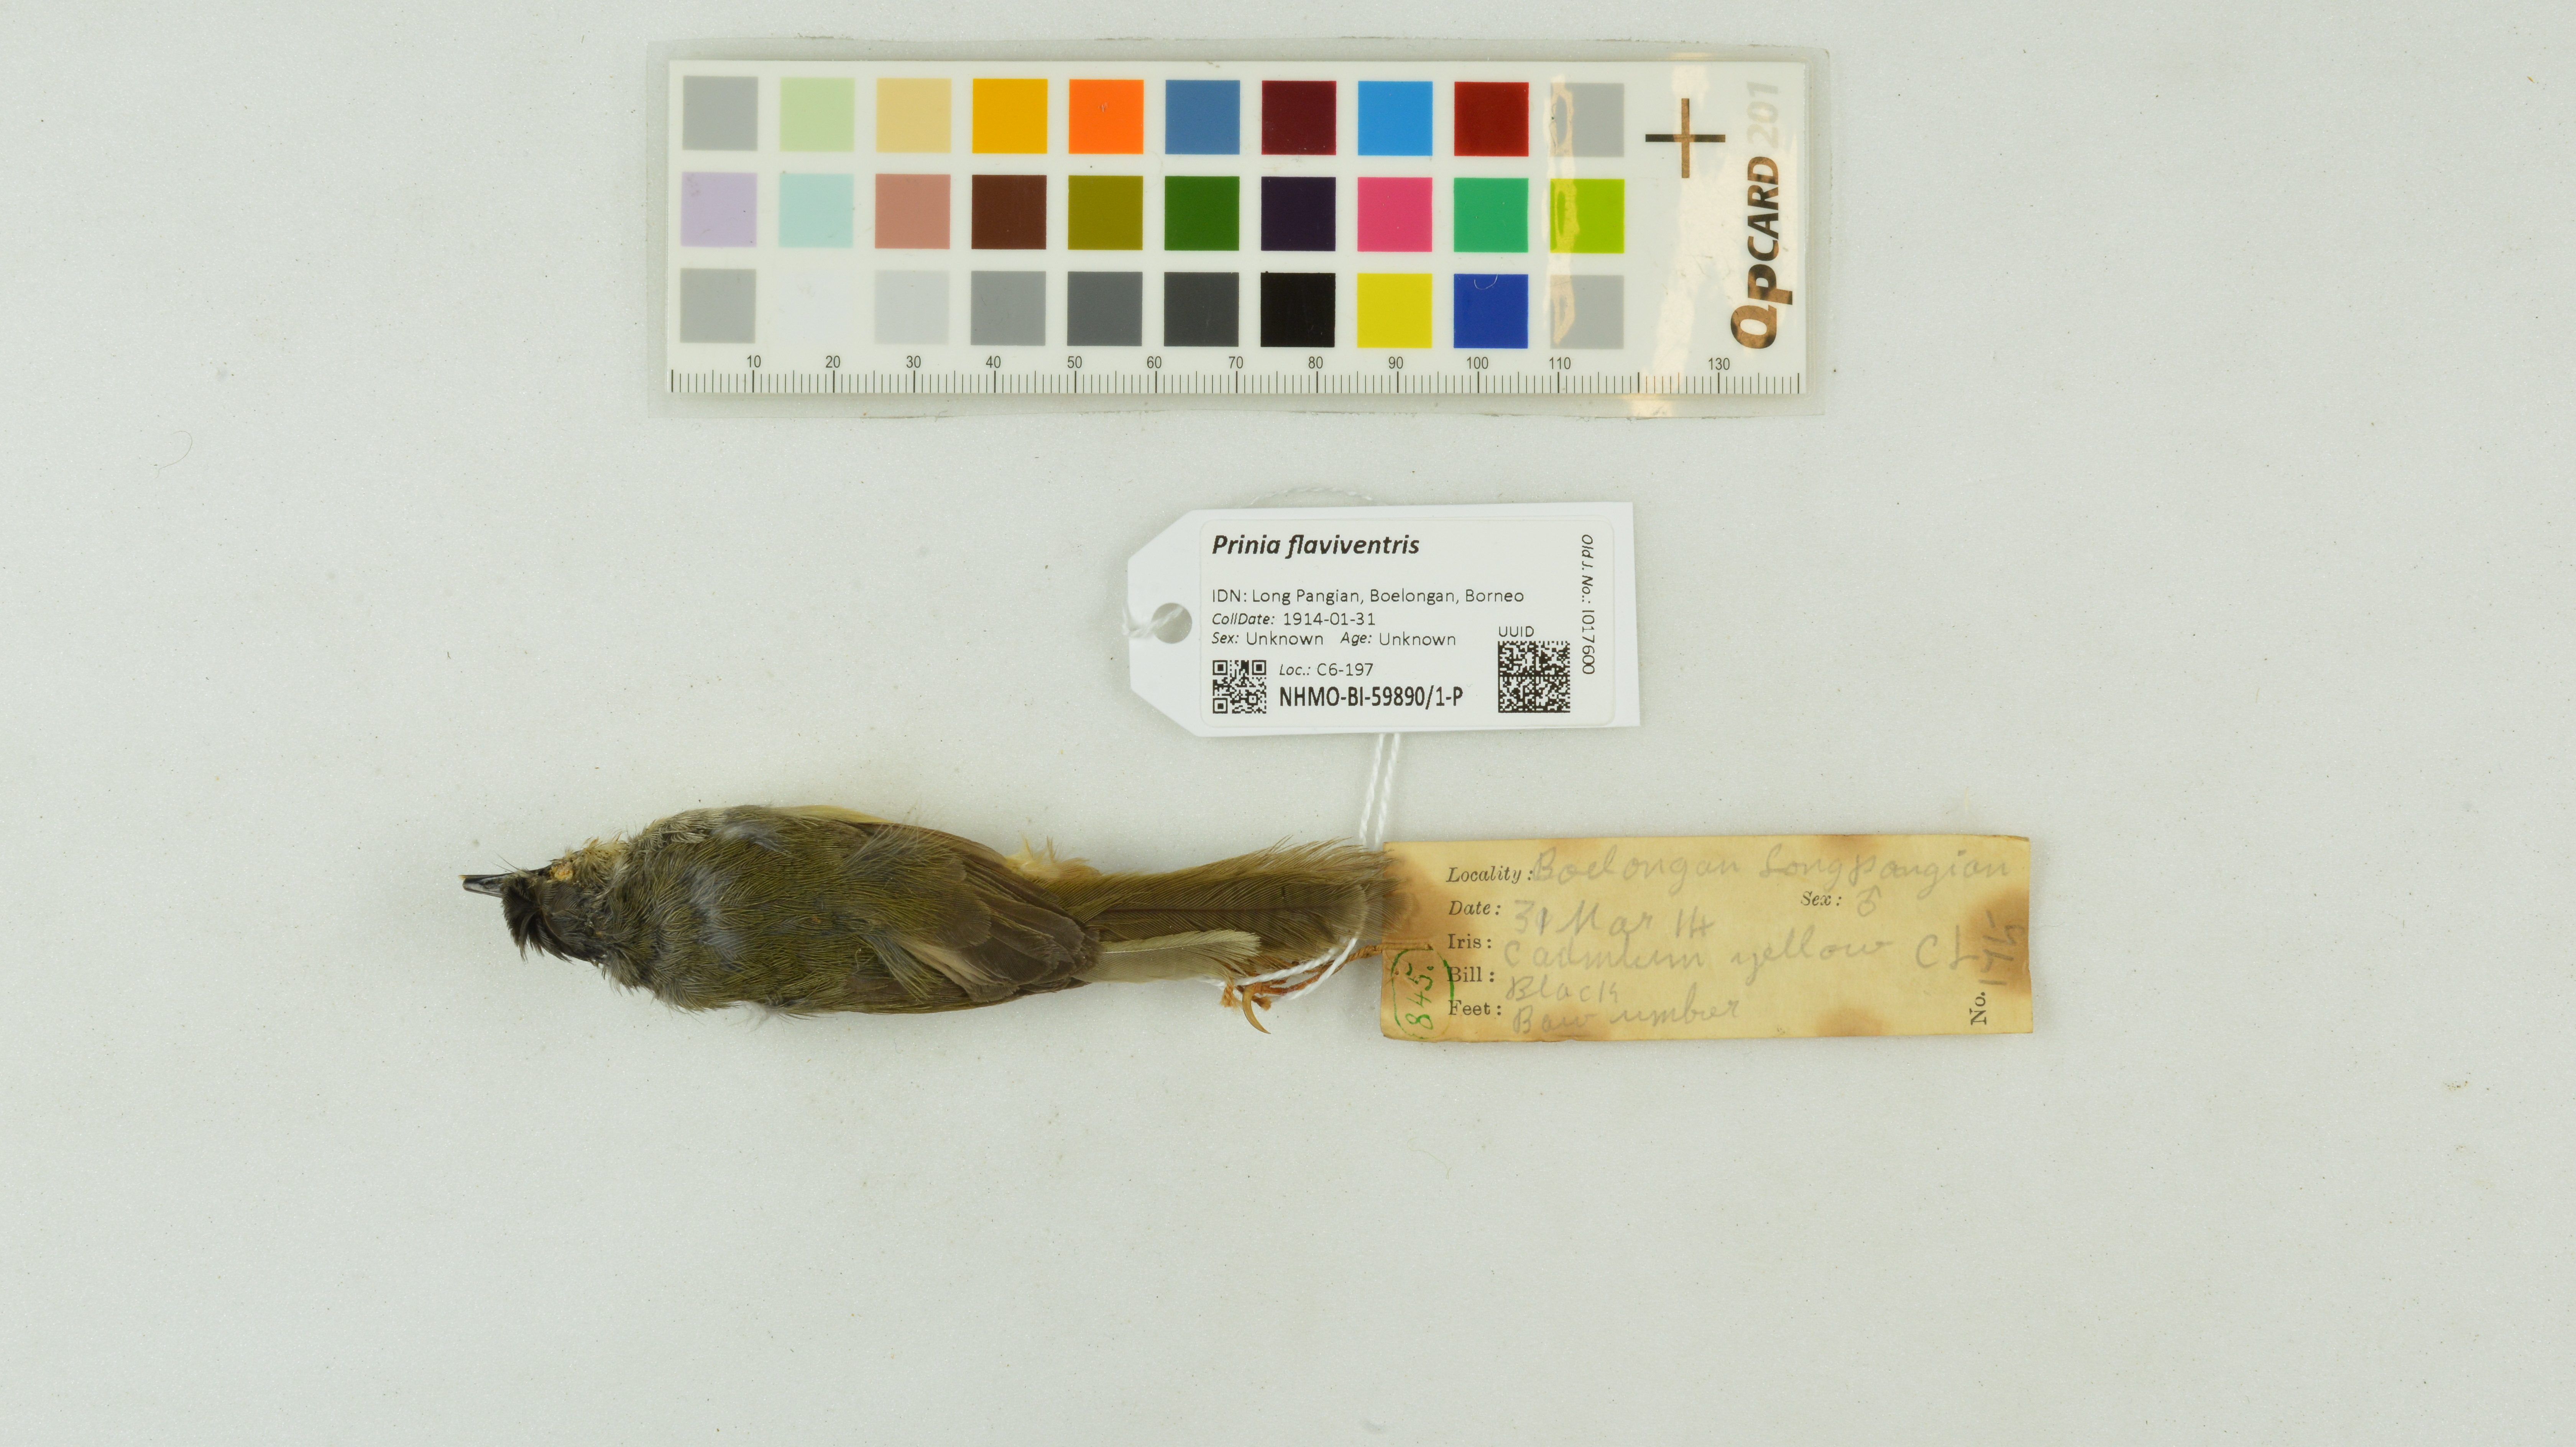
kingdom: Animalia
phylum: Chordata
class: Aves
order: Passeriformes
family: Cisticolidae
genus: Prinia
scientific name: Prinia flaviventris
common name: Yellow-bellied prinia
